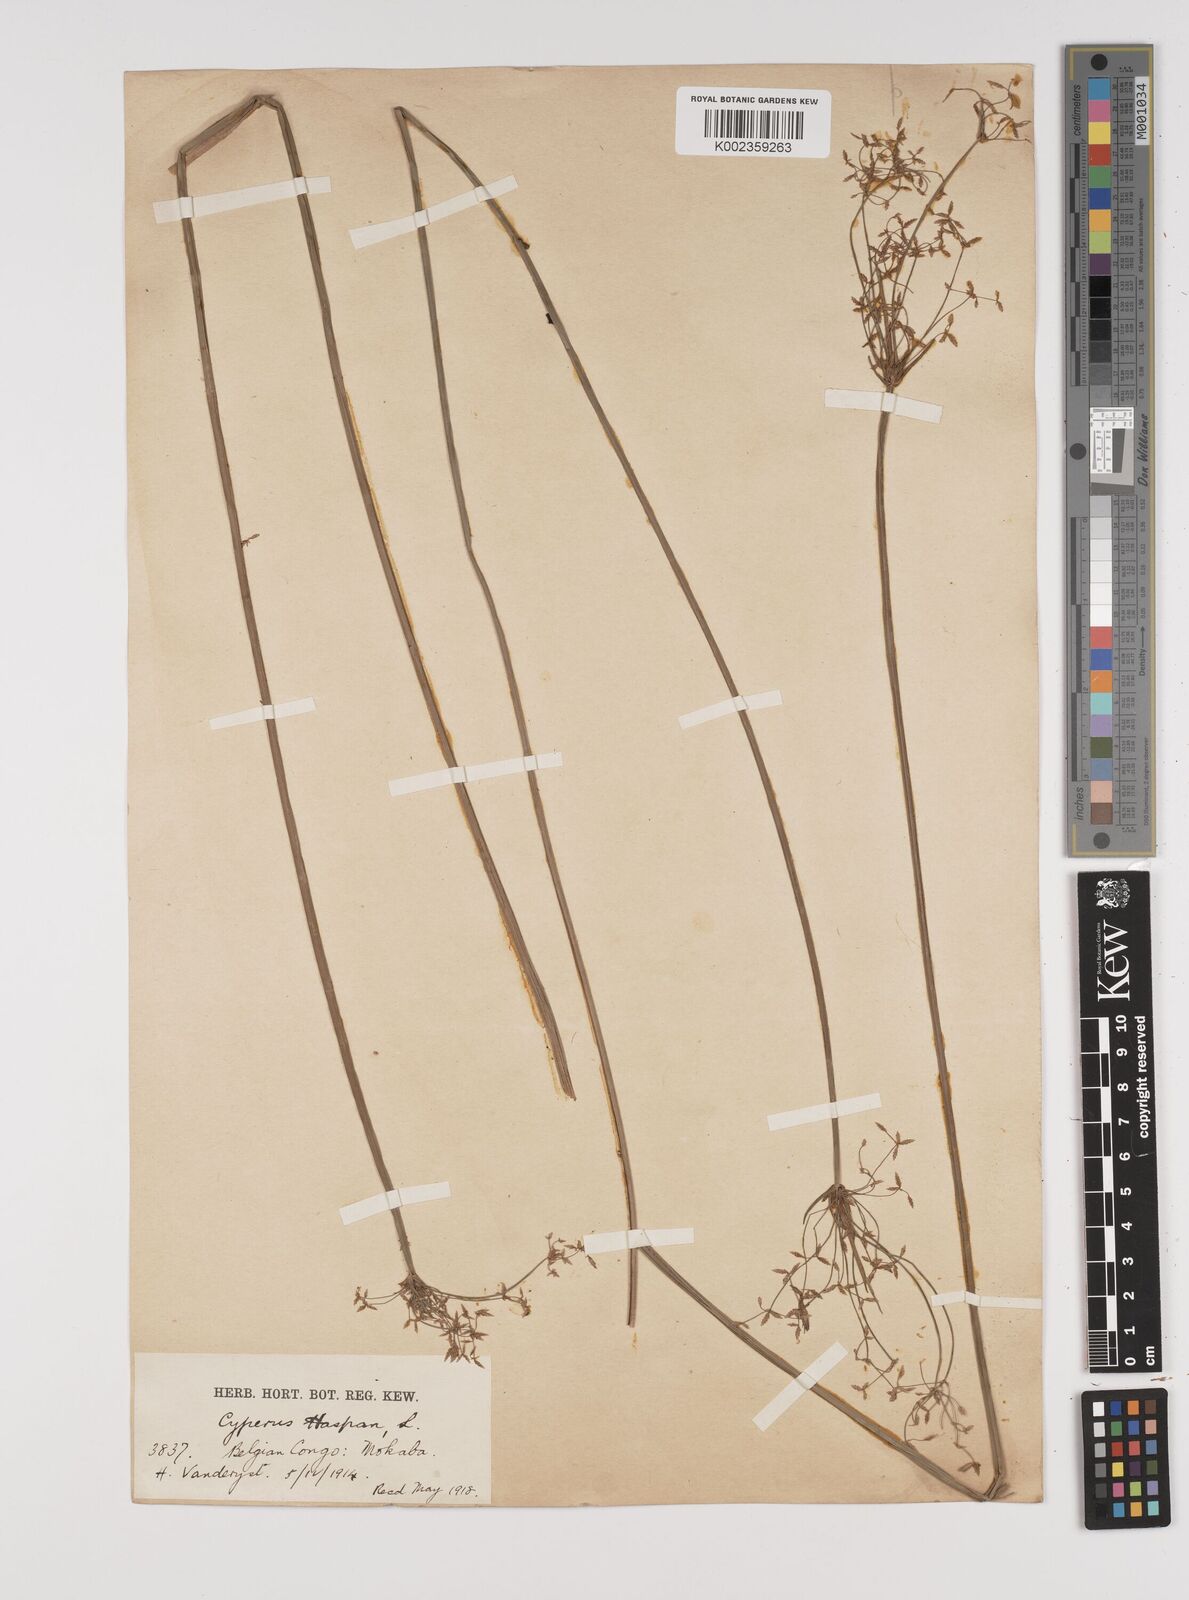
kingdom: Plantae
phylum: Tracheophyta
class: Liliopsida
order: Poales
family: Cyperaceae
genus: Cyperus
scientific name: Cyperus haspan
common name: Haspan flatsedge
